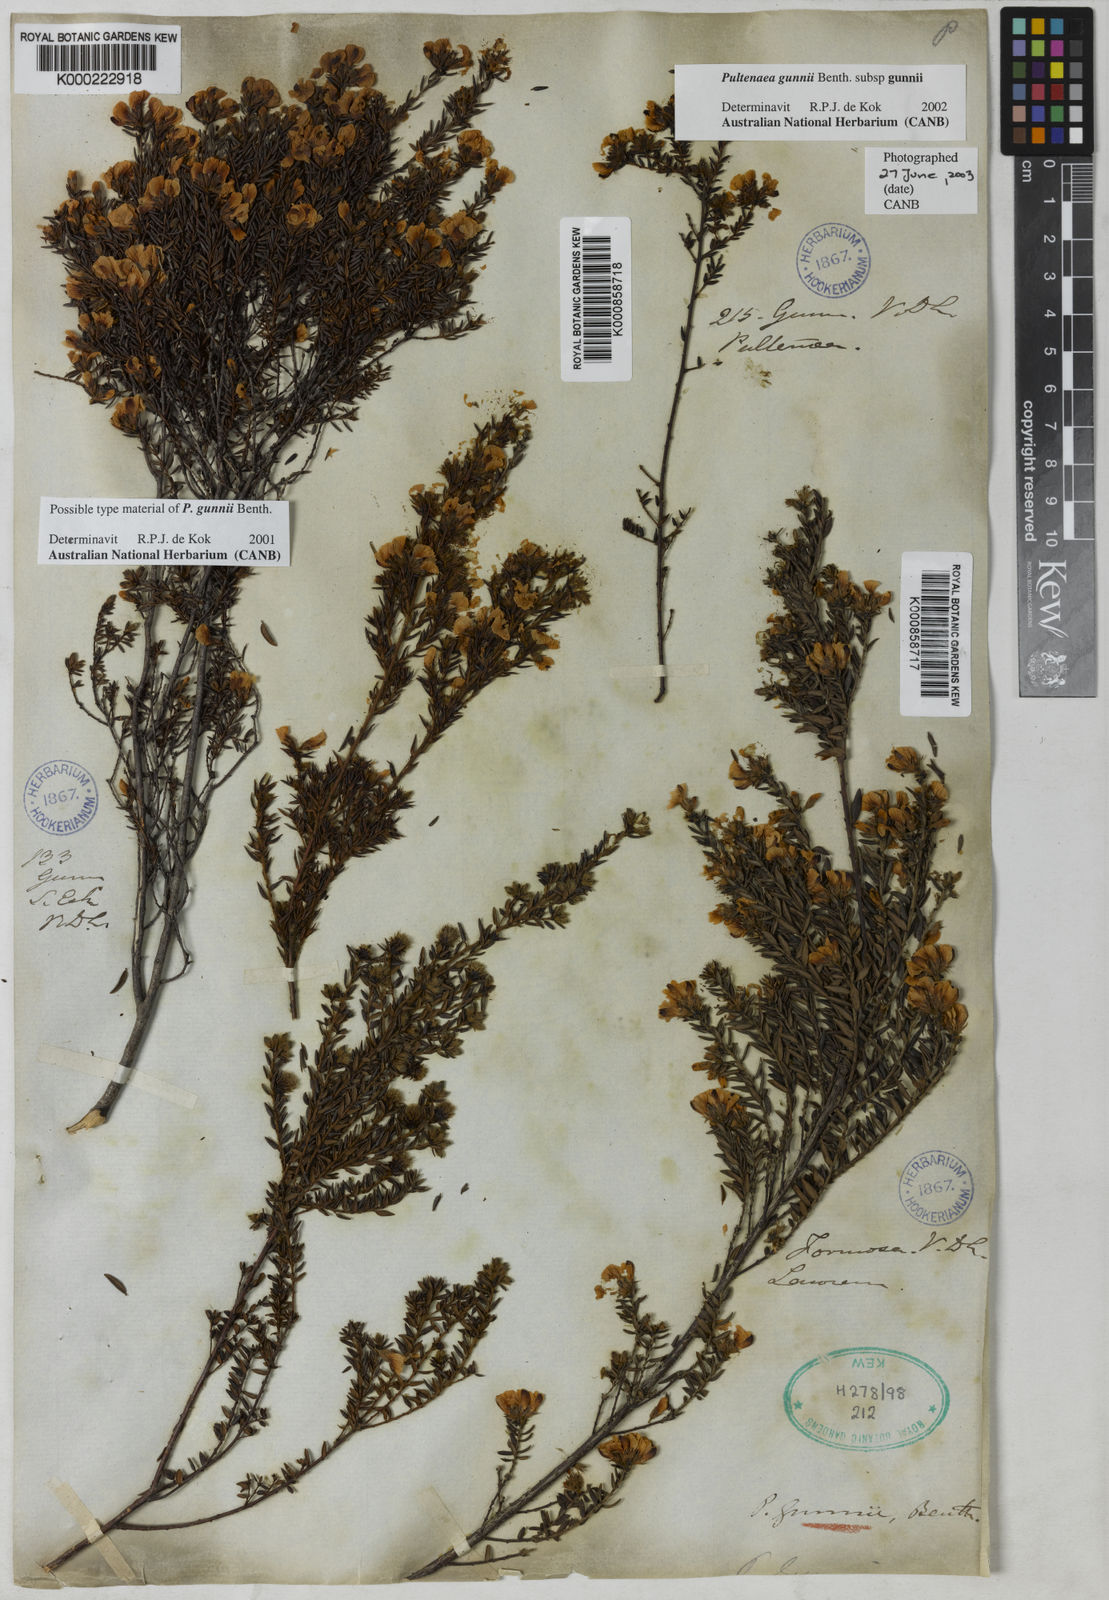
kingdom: Plantae
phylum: Tracheophyta
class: Magnoliopsida
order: Fabales
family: Fabaceae
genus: Pultenaea
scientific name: Pultenaea gunnii
